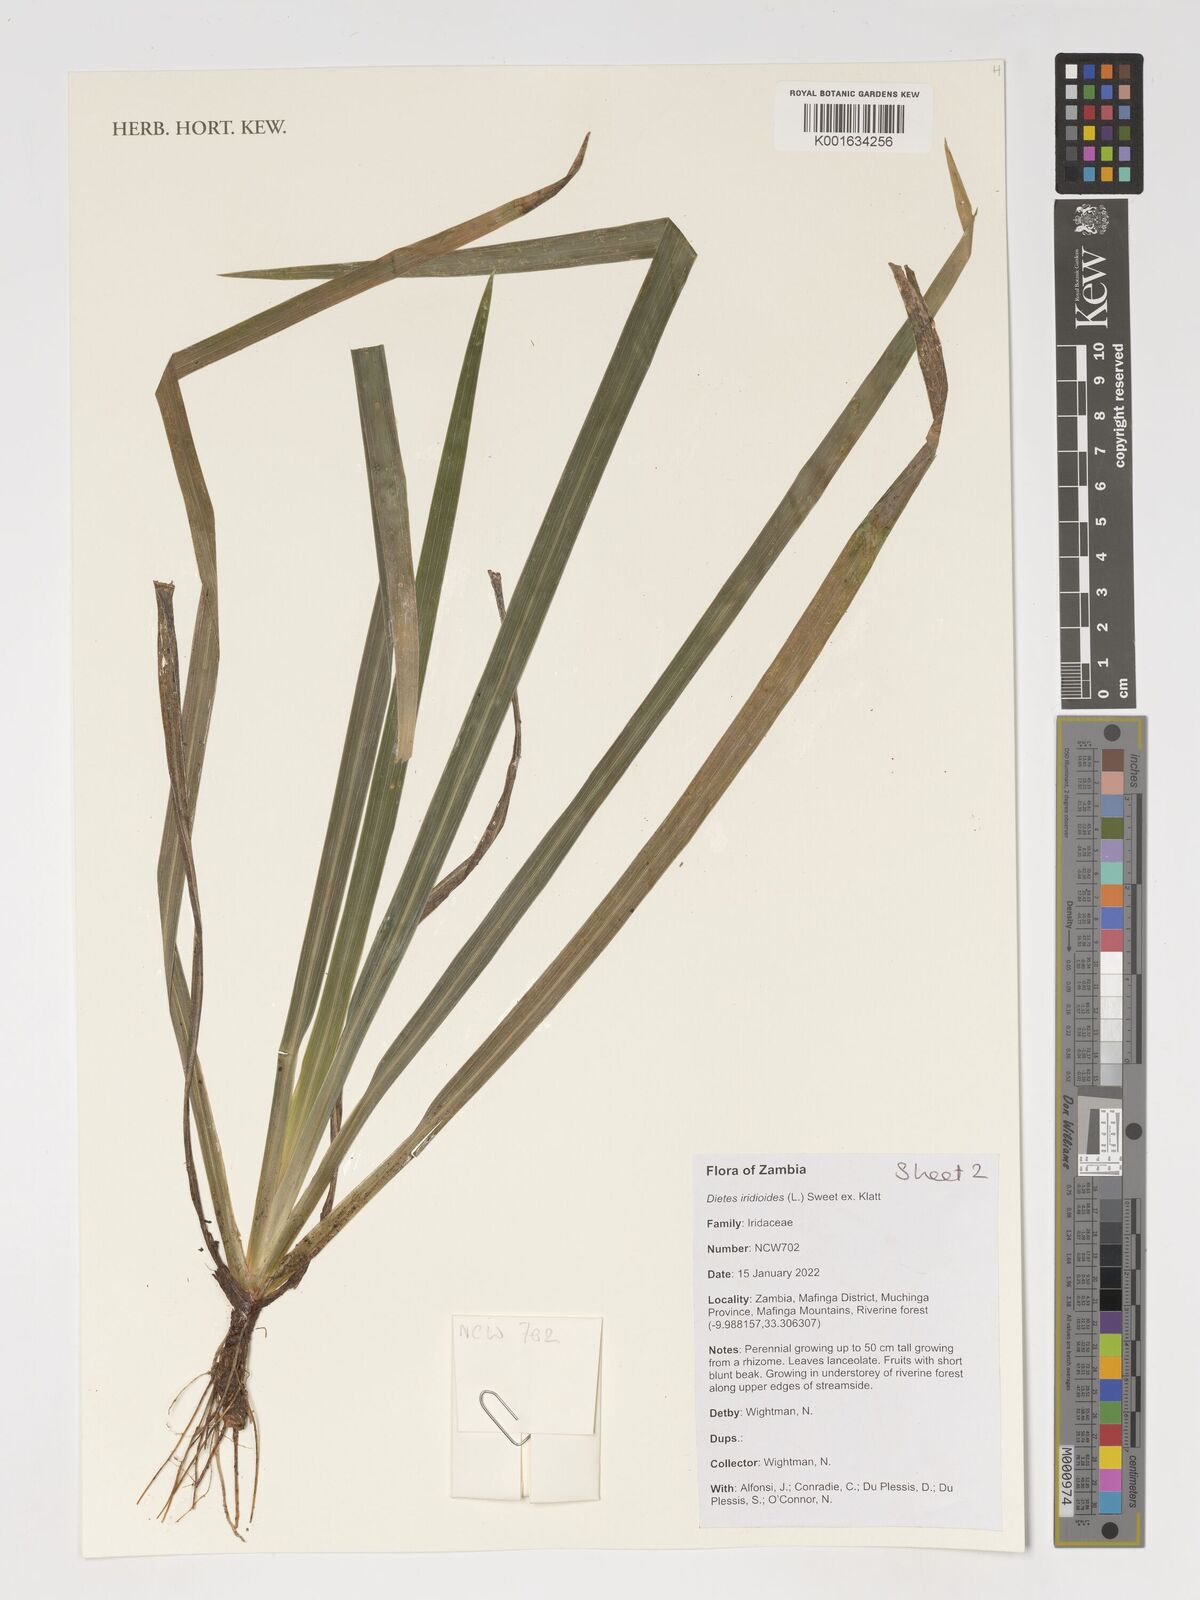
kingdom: Plantae
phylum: Tracheophyta
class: Liliopsida
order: Asparagales
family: Iridaceae
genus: Dietes
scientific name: Dietes iridioides
